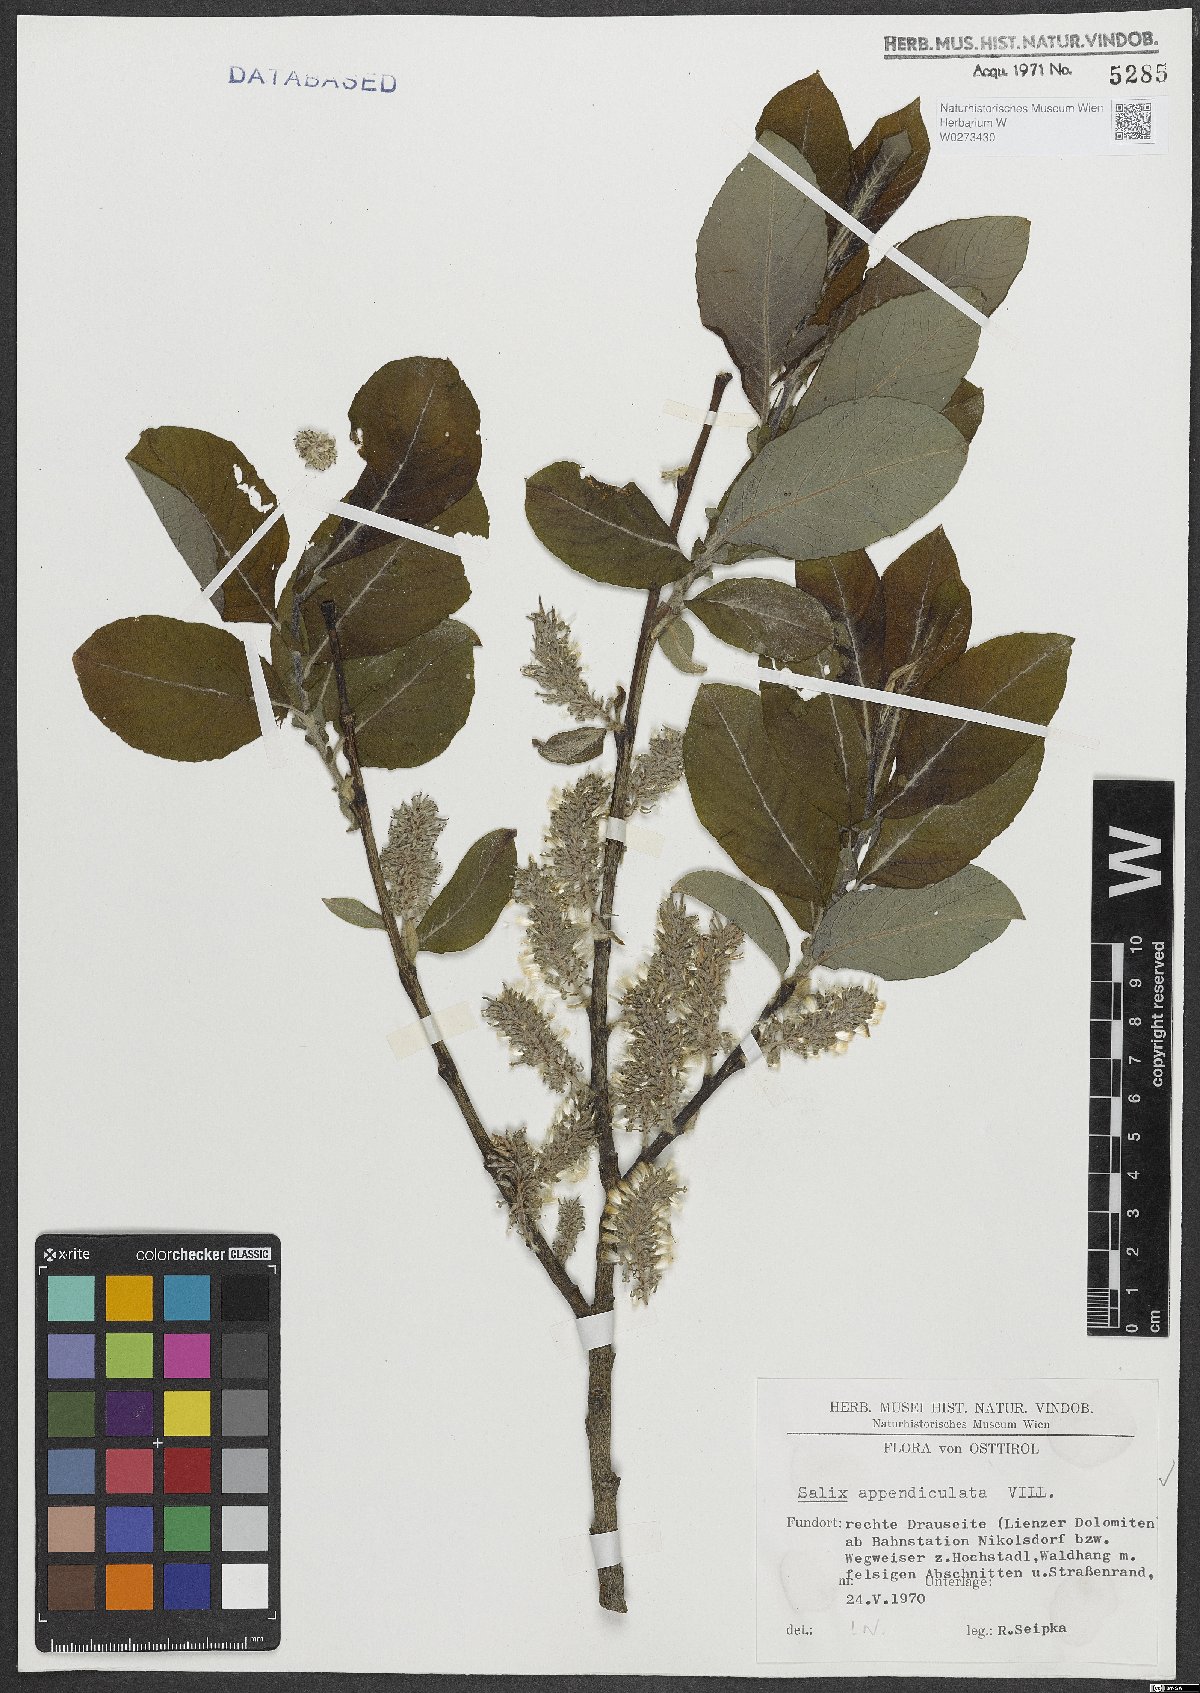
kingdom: Plantae
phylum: Tracheophyta
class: Magnoliopsida
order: Malpighiales
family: Salicaceae
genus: Salix
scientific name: Salix appendiculata
